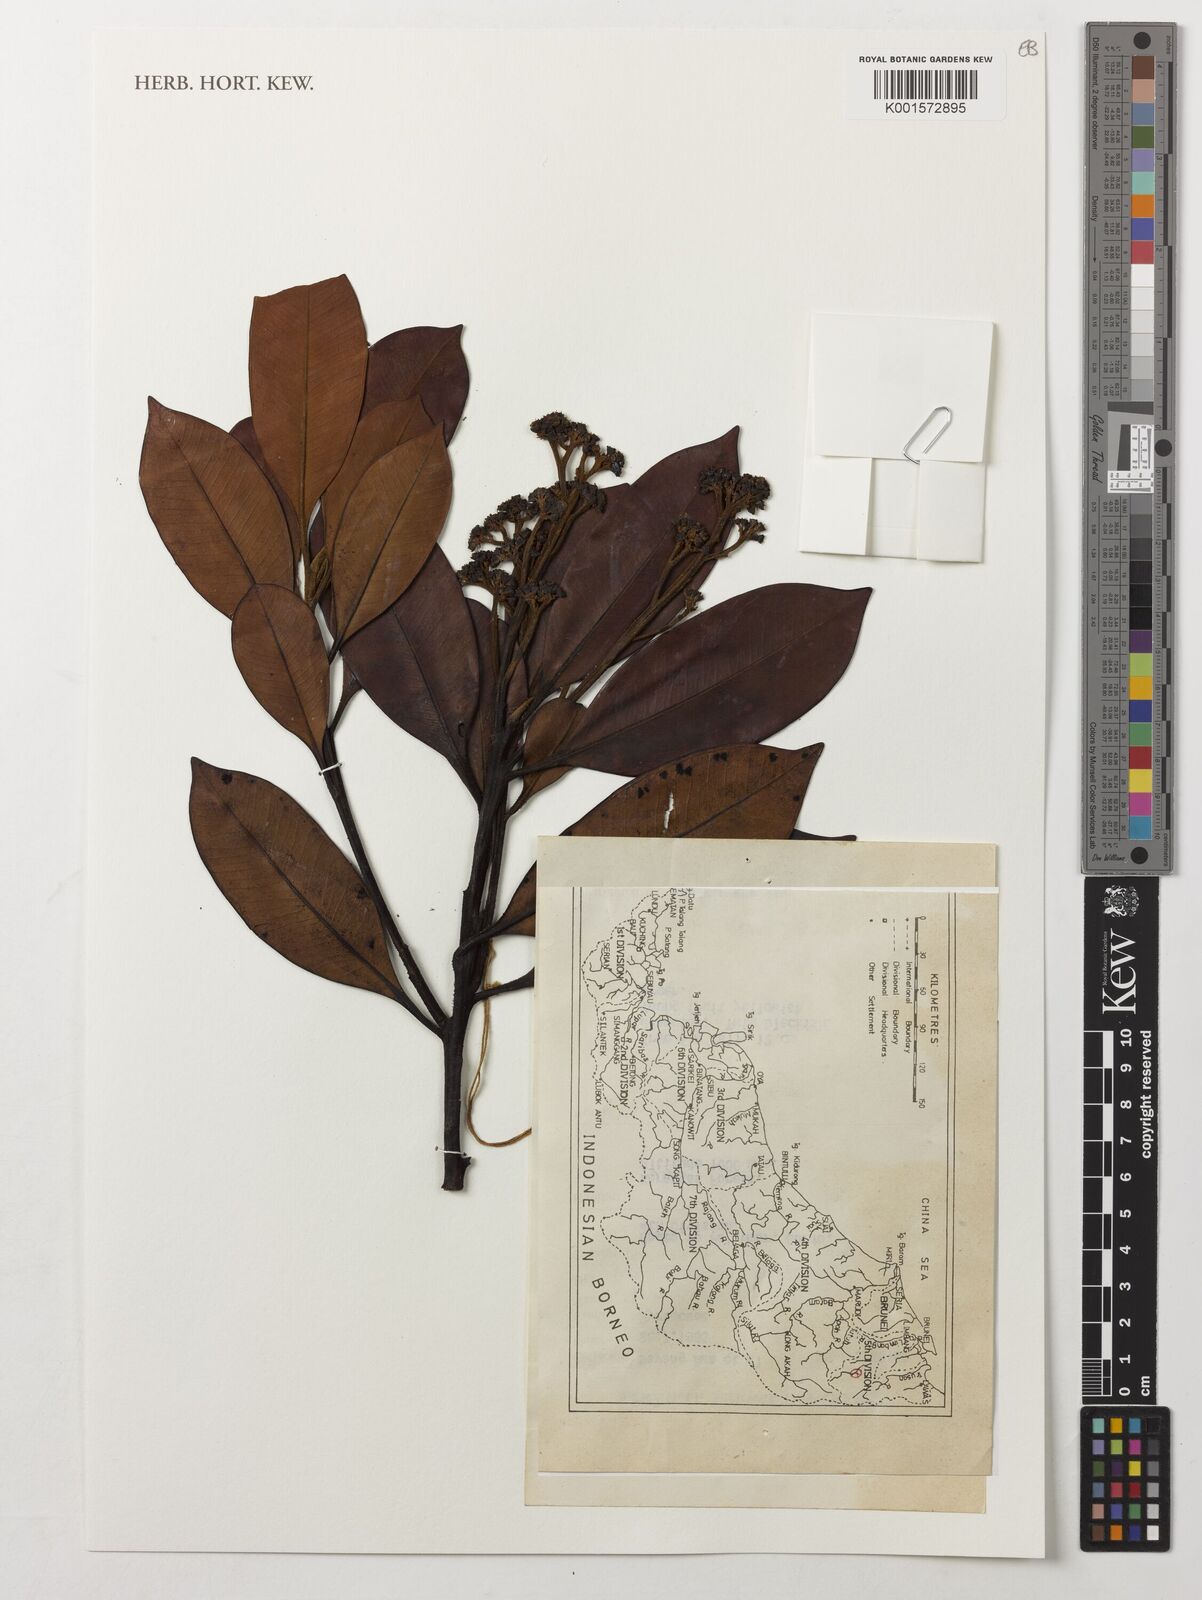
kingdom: Plantae
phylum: Tracheophyta
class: Magnoliopsida
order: Myrtales
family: Myrtaceae
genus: Tristaniopsis
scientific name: Tristaniopsis
